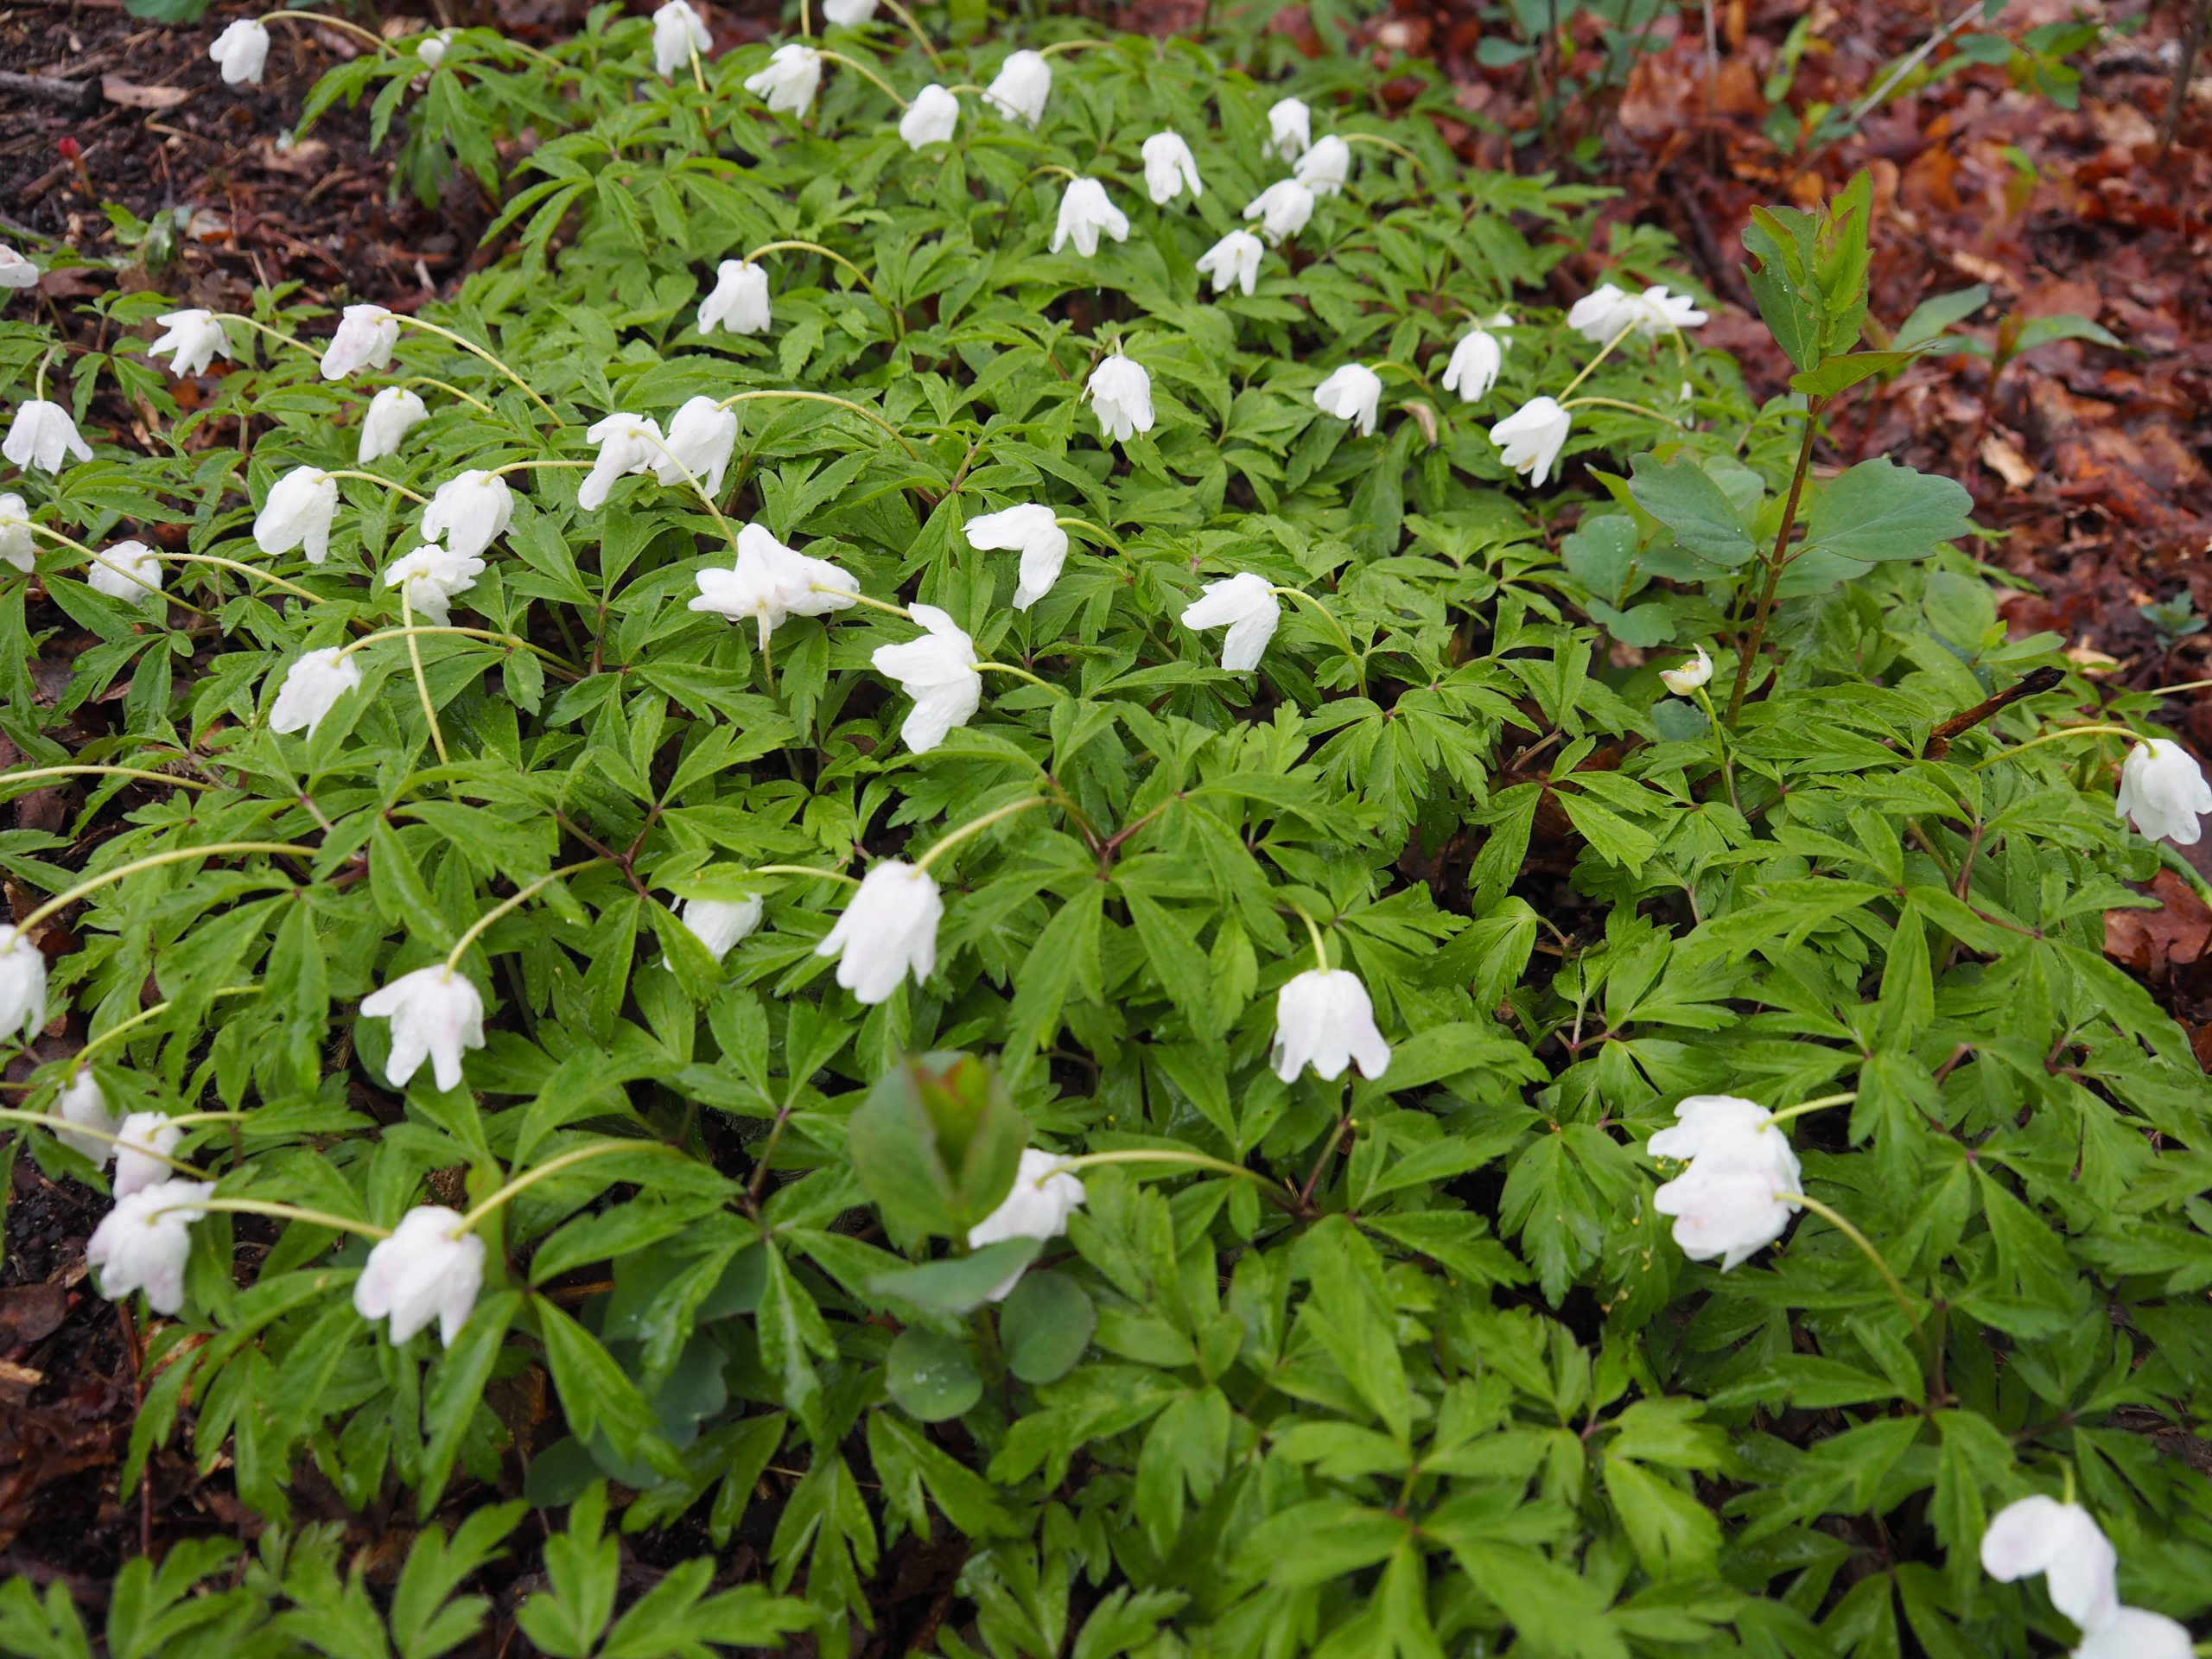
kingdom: Plantae
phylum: Tracheophyta
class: Magnoliopsida
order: Ranunculales
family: Ranunculaceae
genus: Anemone
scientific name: Anemone nemorosa
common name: Hvid anemone
